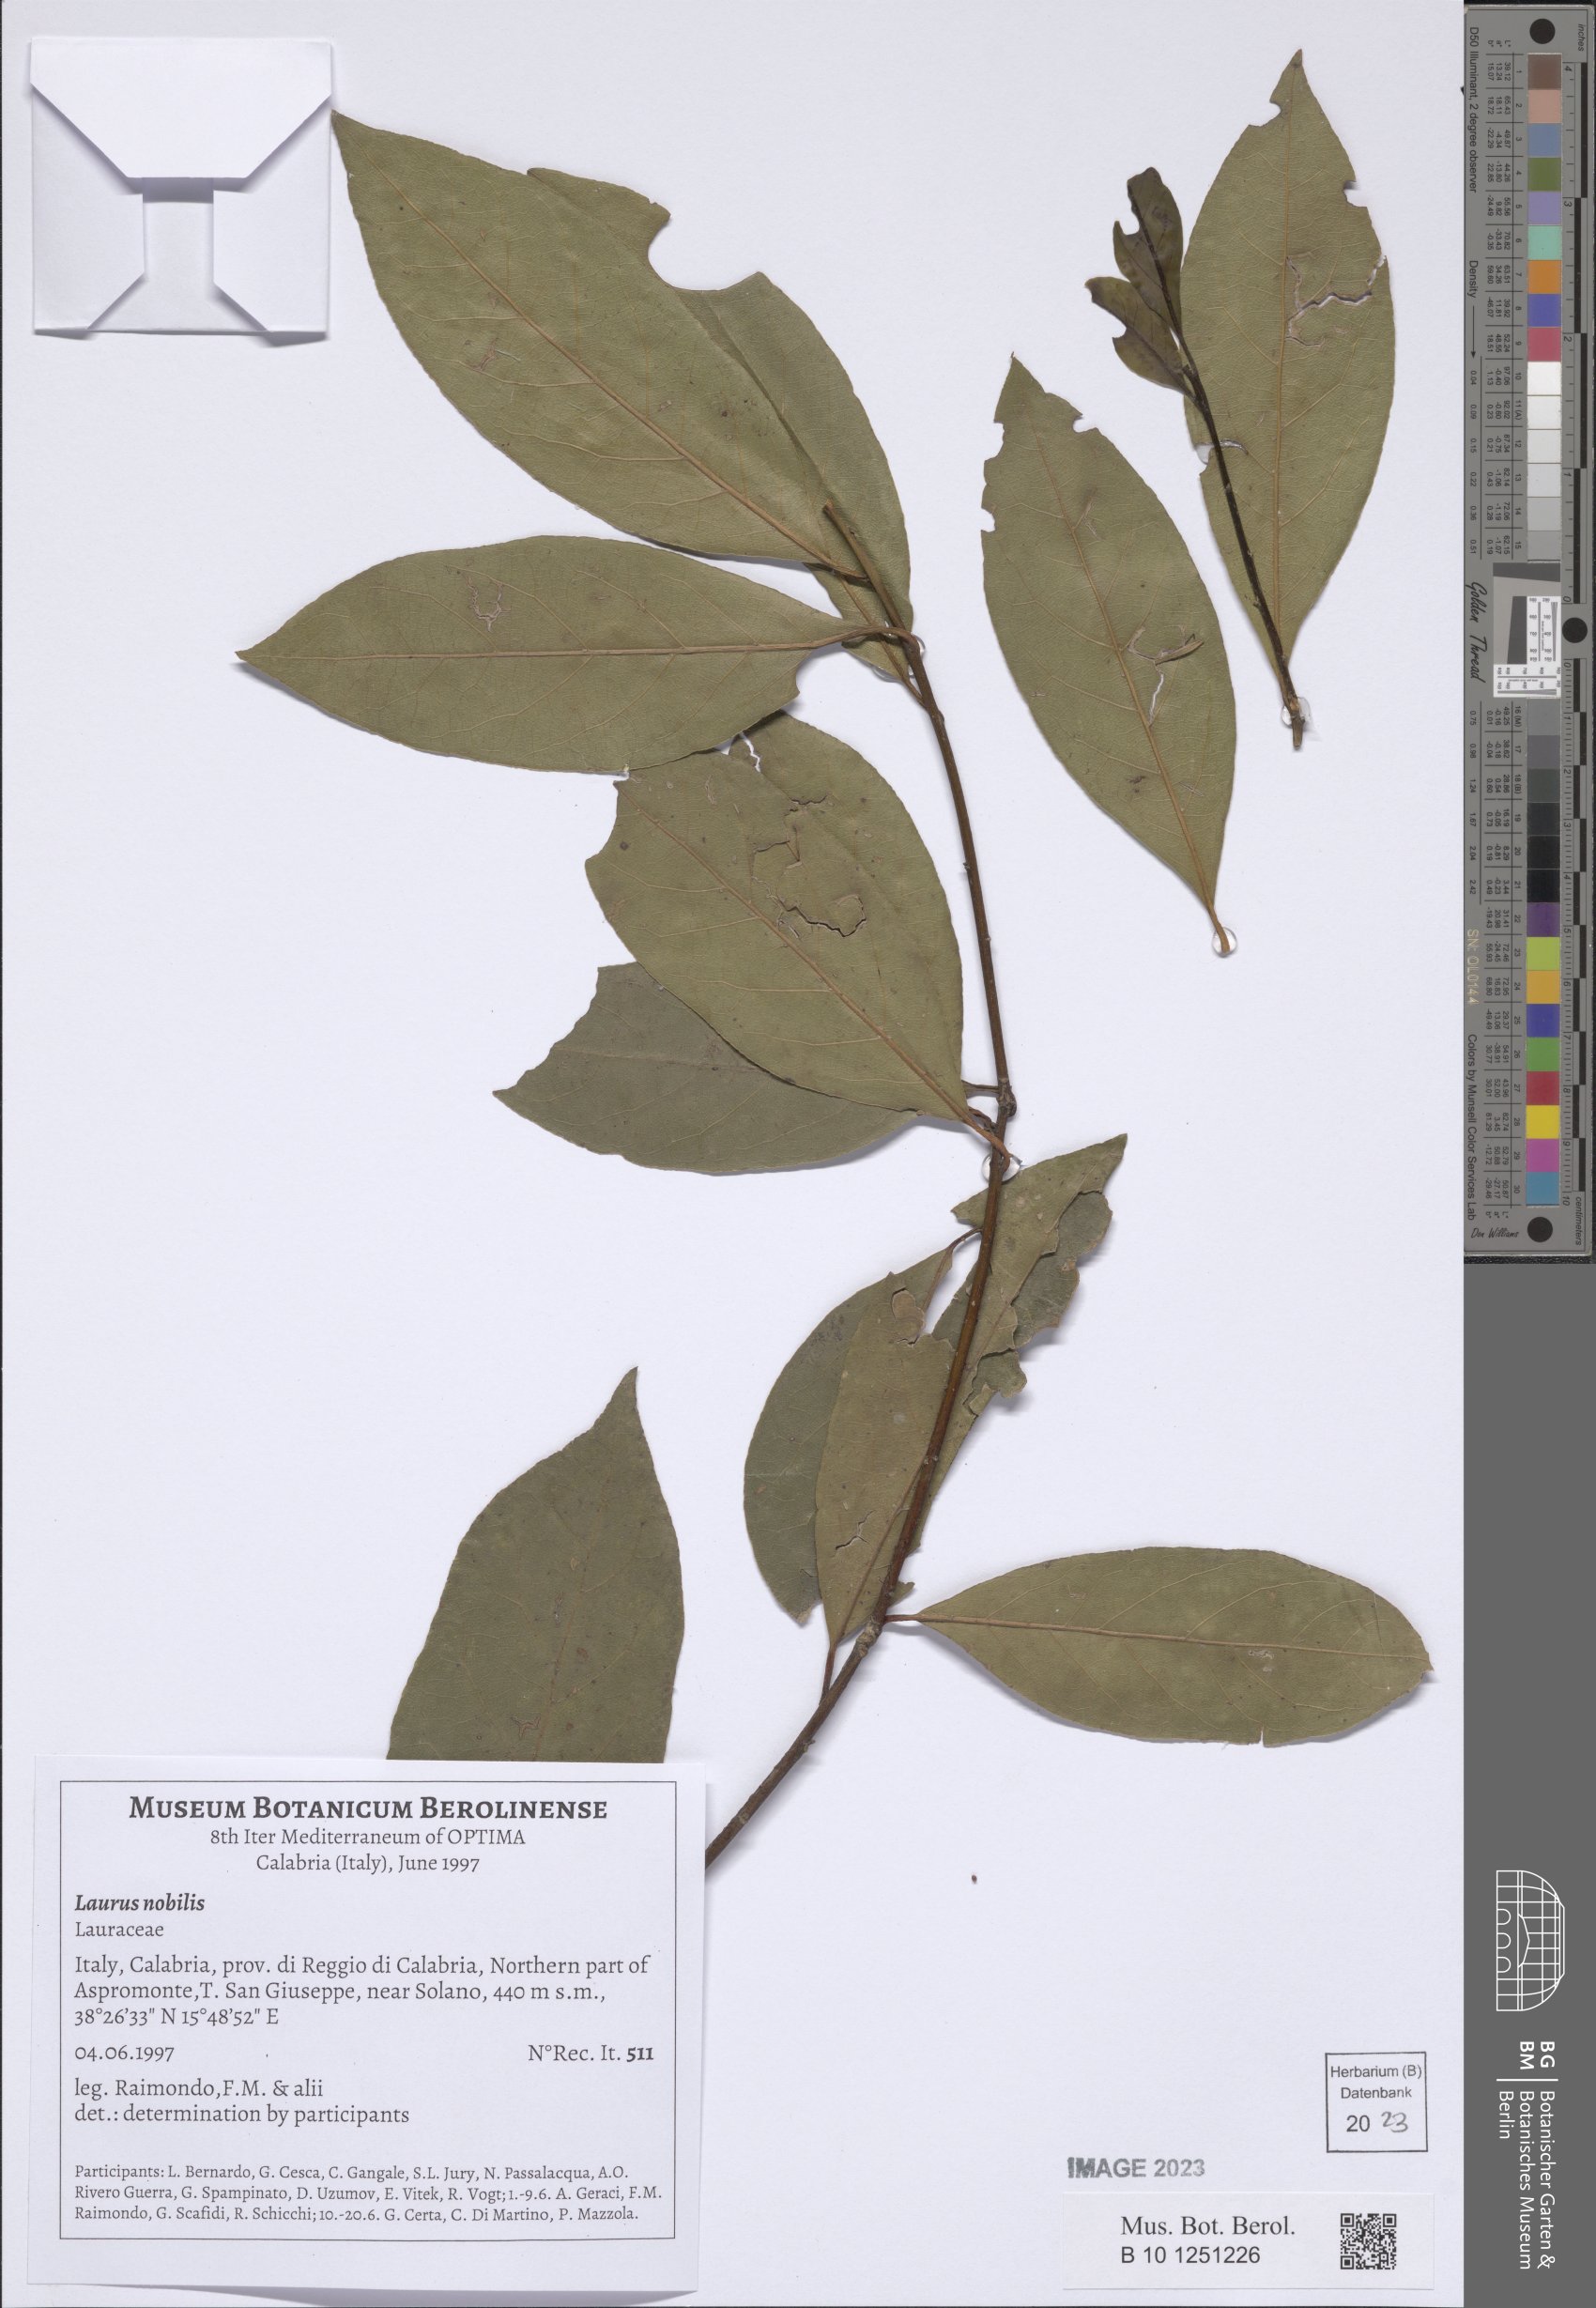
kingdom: Plantae
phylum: Tracheophyta
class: Magnoliopsida
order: Laurales
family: Lauraceae
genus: Laurus
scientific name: Laurus nobilis
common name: Bay
